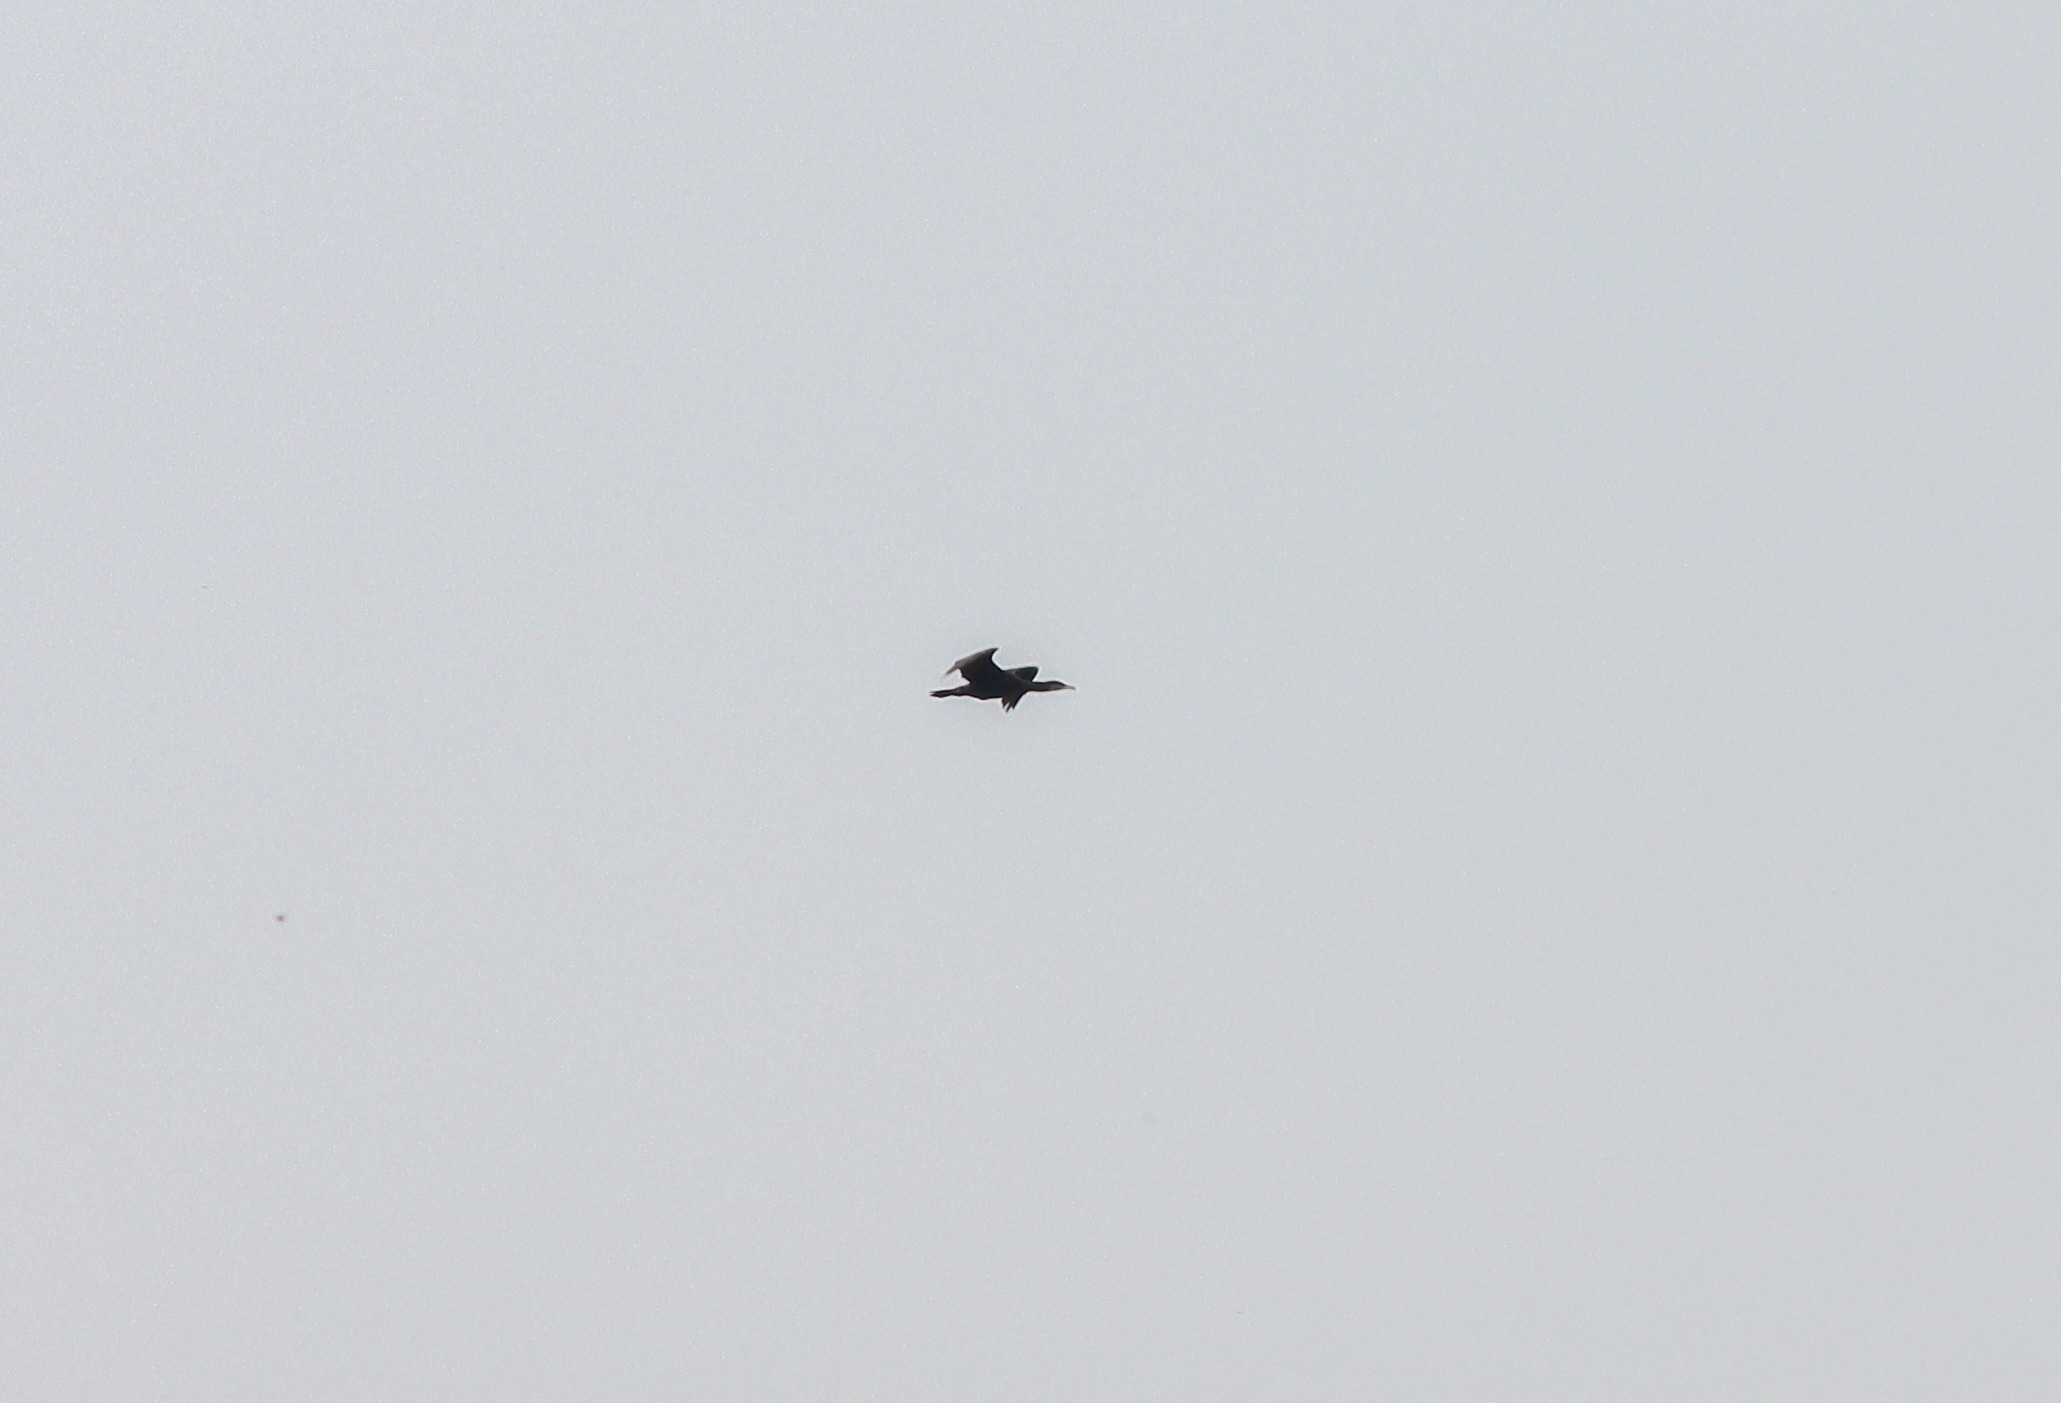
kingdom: Animalia
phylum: Chordata
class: Aves
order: Suliformes
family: Phalacrocoracidae
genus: Phalacrocorax
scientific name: Phalacrocorax carbo
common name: Skarv
